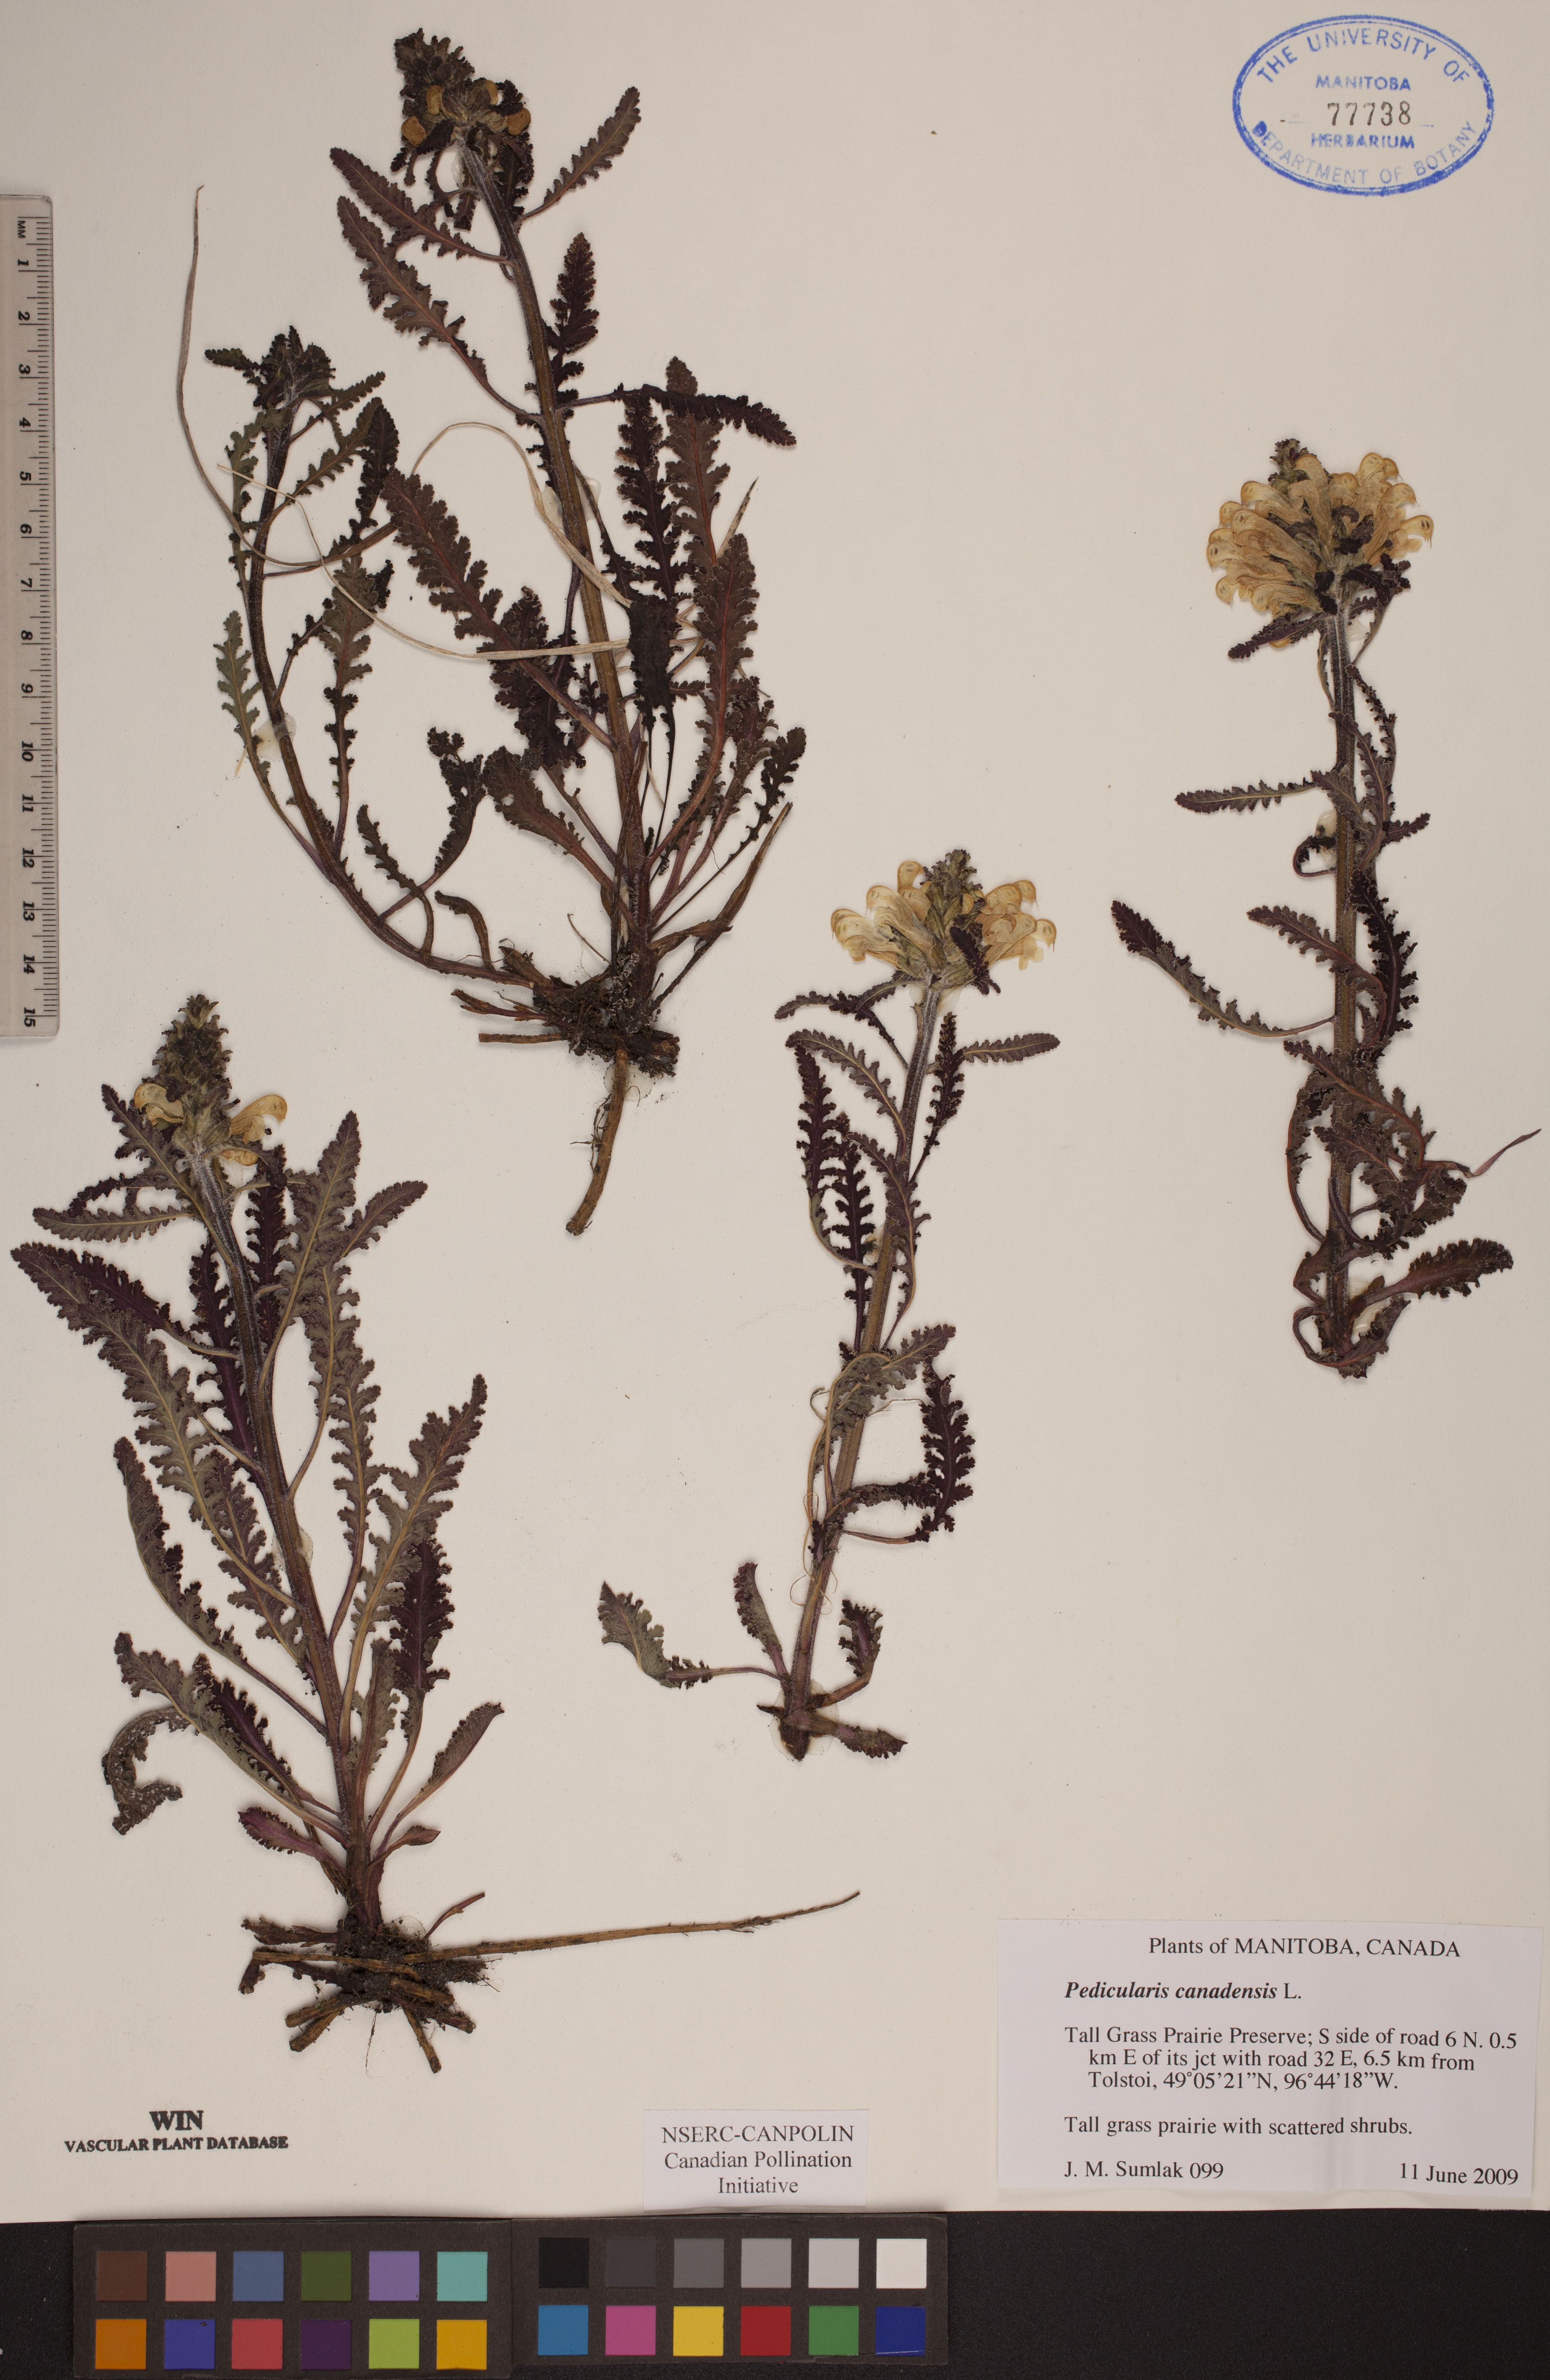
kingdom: Plantae
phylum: Tracheophyta
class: Magnoliopsida
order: Lamiales
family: Orobanchaceae
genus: Pedicularis
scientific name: Pedicularis canadensis
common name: Early lousewort
